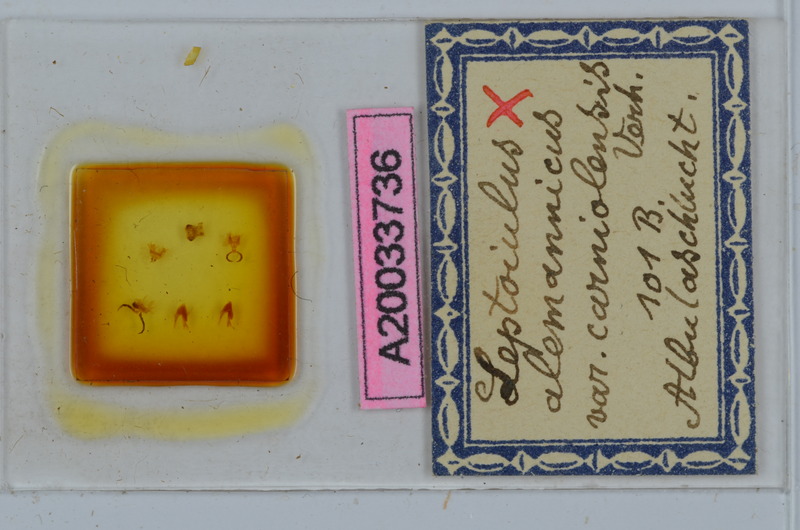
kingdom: Animalia
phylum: Arthropoda
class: Diplopoda
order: Julida
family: Julidae
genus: Leptoiulus
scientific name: Leptoiulus alemannicus
